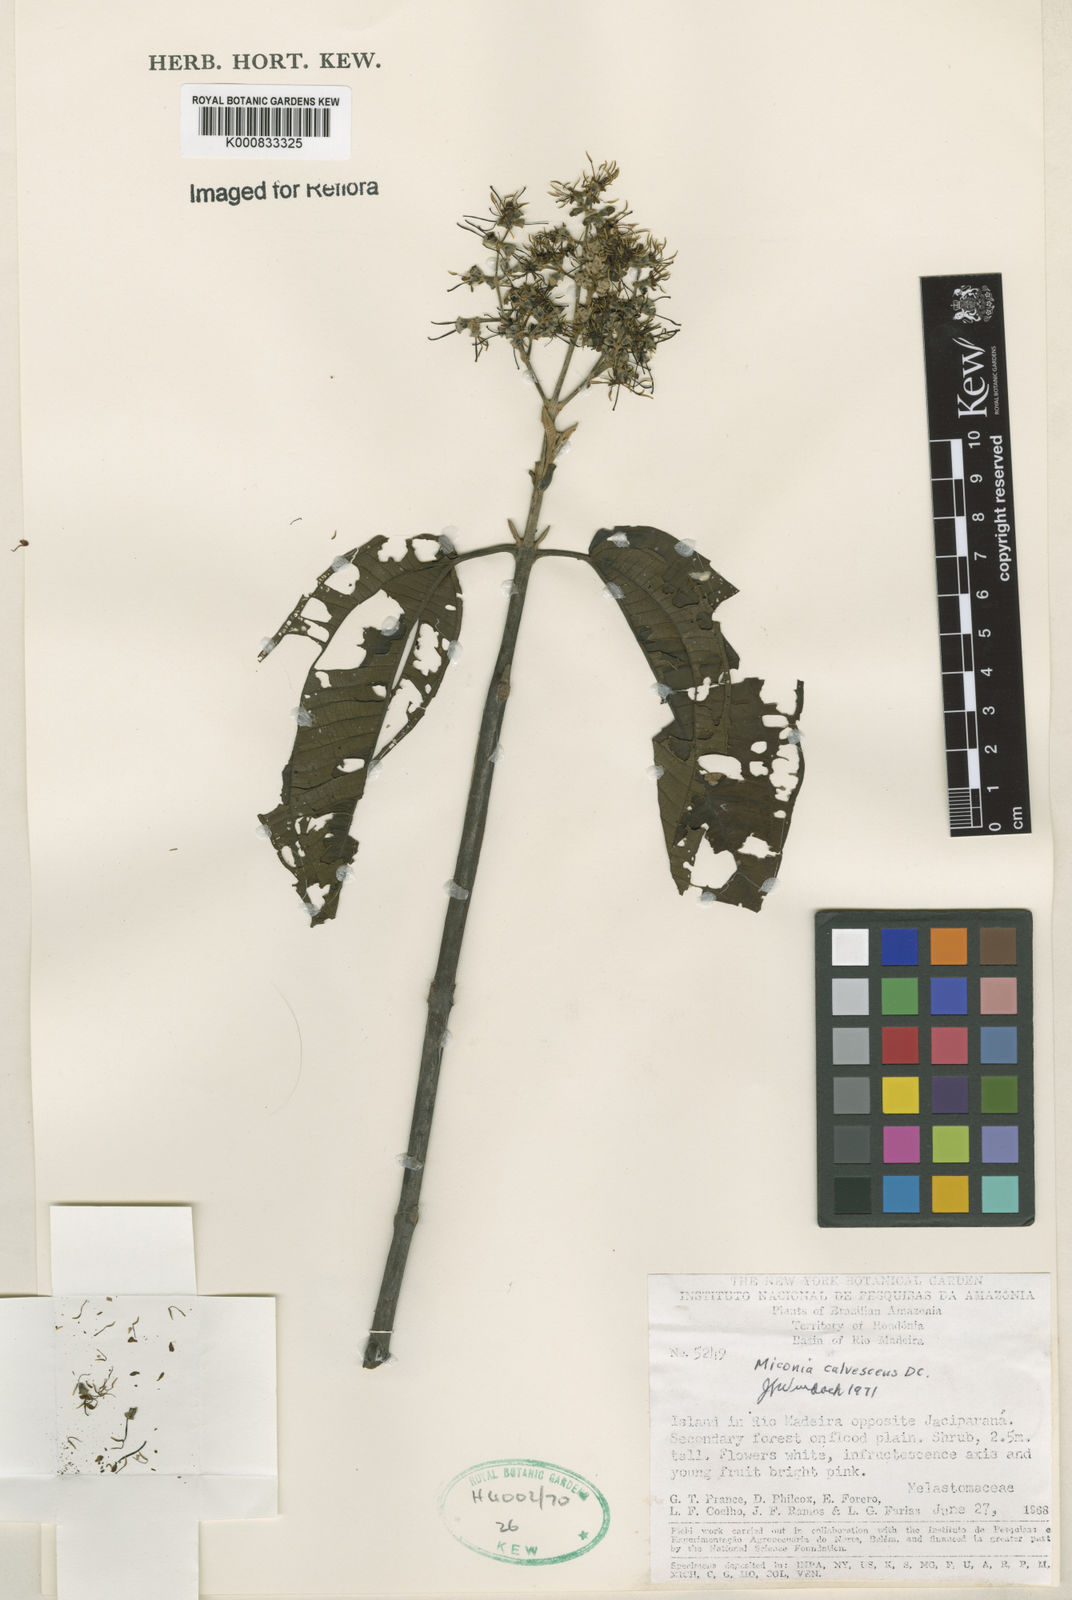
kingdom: Plantae
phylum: Tracheophyta
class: Magnoliopsida
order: Myrtales
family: Melastomataceae
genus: Miconia
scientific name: Miconia calvescens
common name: Purple plague
